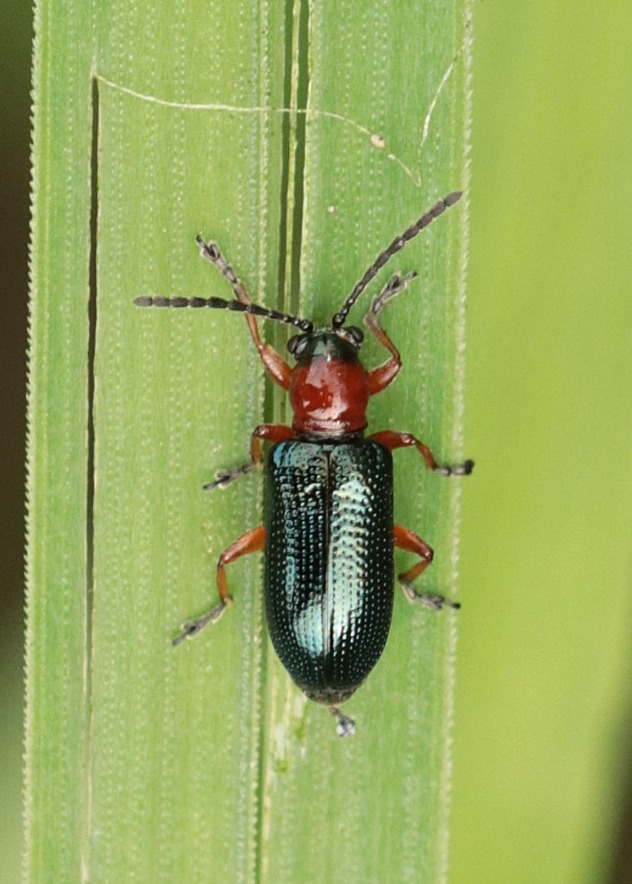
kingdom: Animalia
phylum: Arthropoda
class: Insecta
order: Coleoptera
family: Chrysomelidae
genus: Oulema
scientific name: Oulema
